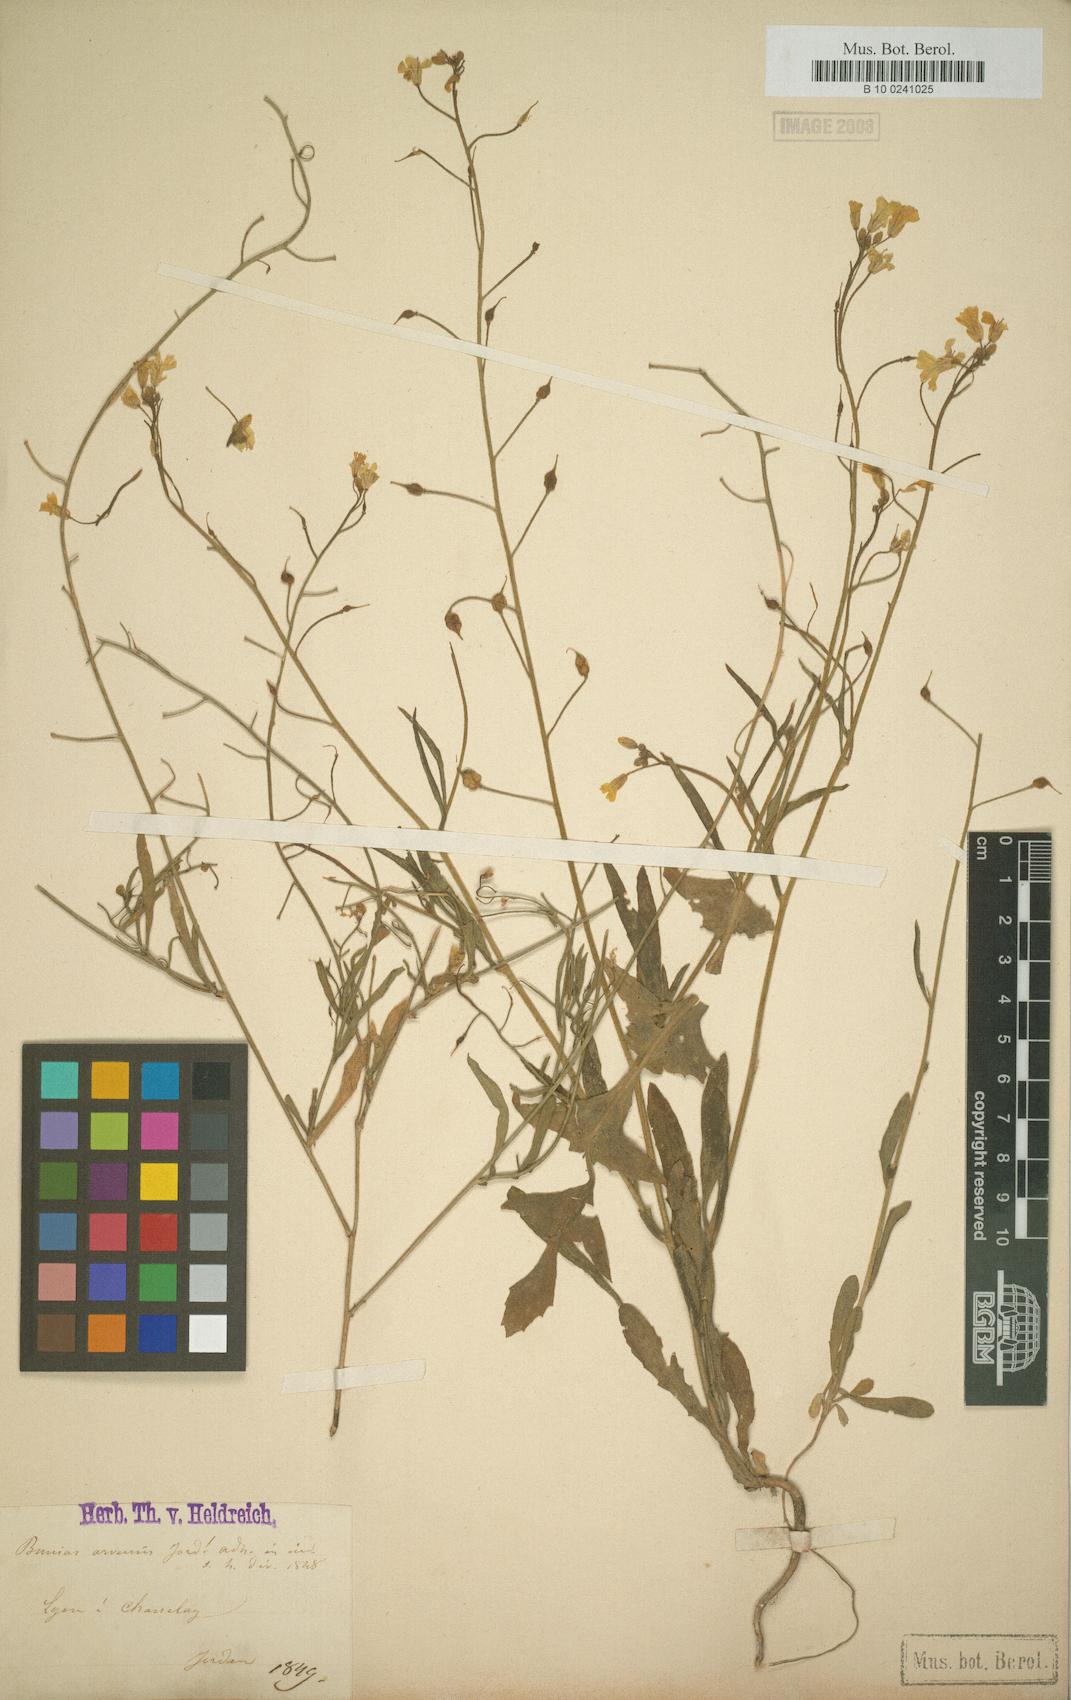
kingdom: Plantae
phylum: Tracheophyta
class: Magnoliopsida
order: Brassicales
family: Brassicaceae
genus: Bunias
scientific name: Bunias erucago
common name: Southern warty-cabbage
